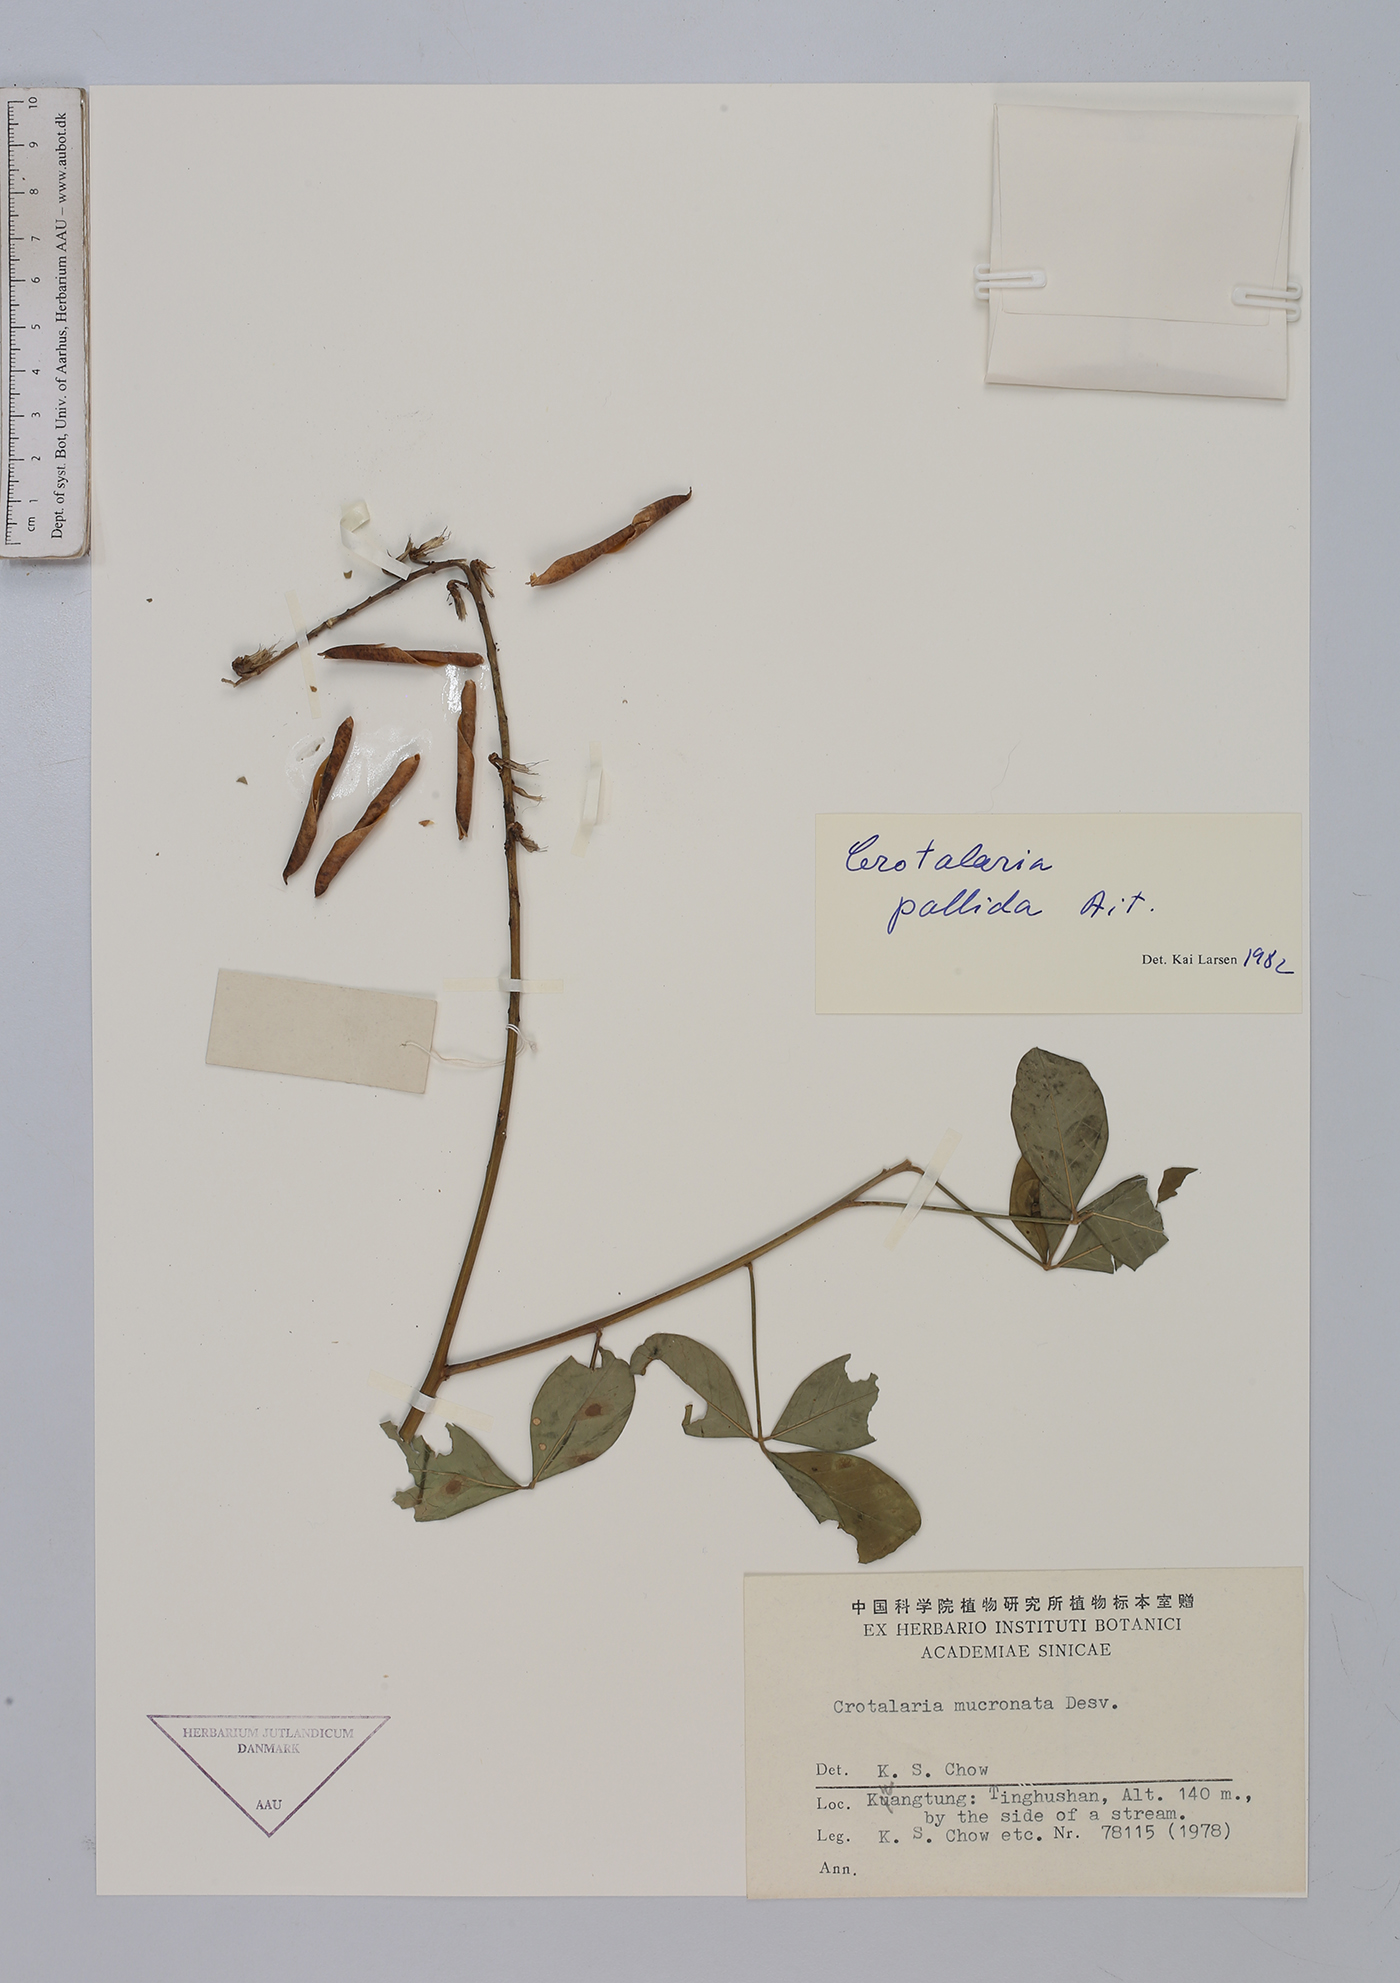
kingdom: Plantae
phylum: Tracheophyta
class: Magnoliopsida
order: Fabales
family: Fabaceae
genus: Crotalaria
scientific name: Crotalaria pallida
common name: Smooth rattlebox
